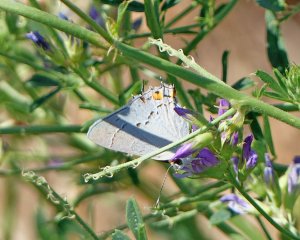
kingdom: Animalia
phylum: Arthropoda
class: Insecta
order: Lepidoptera
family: Lycaenidae
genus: Strymon
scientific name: Strymon melinus
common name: Gray Hairstreak
